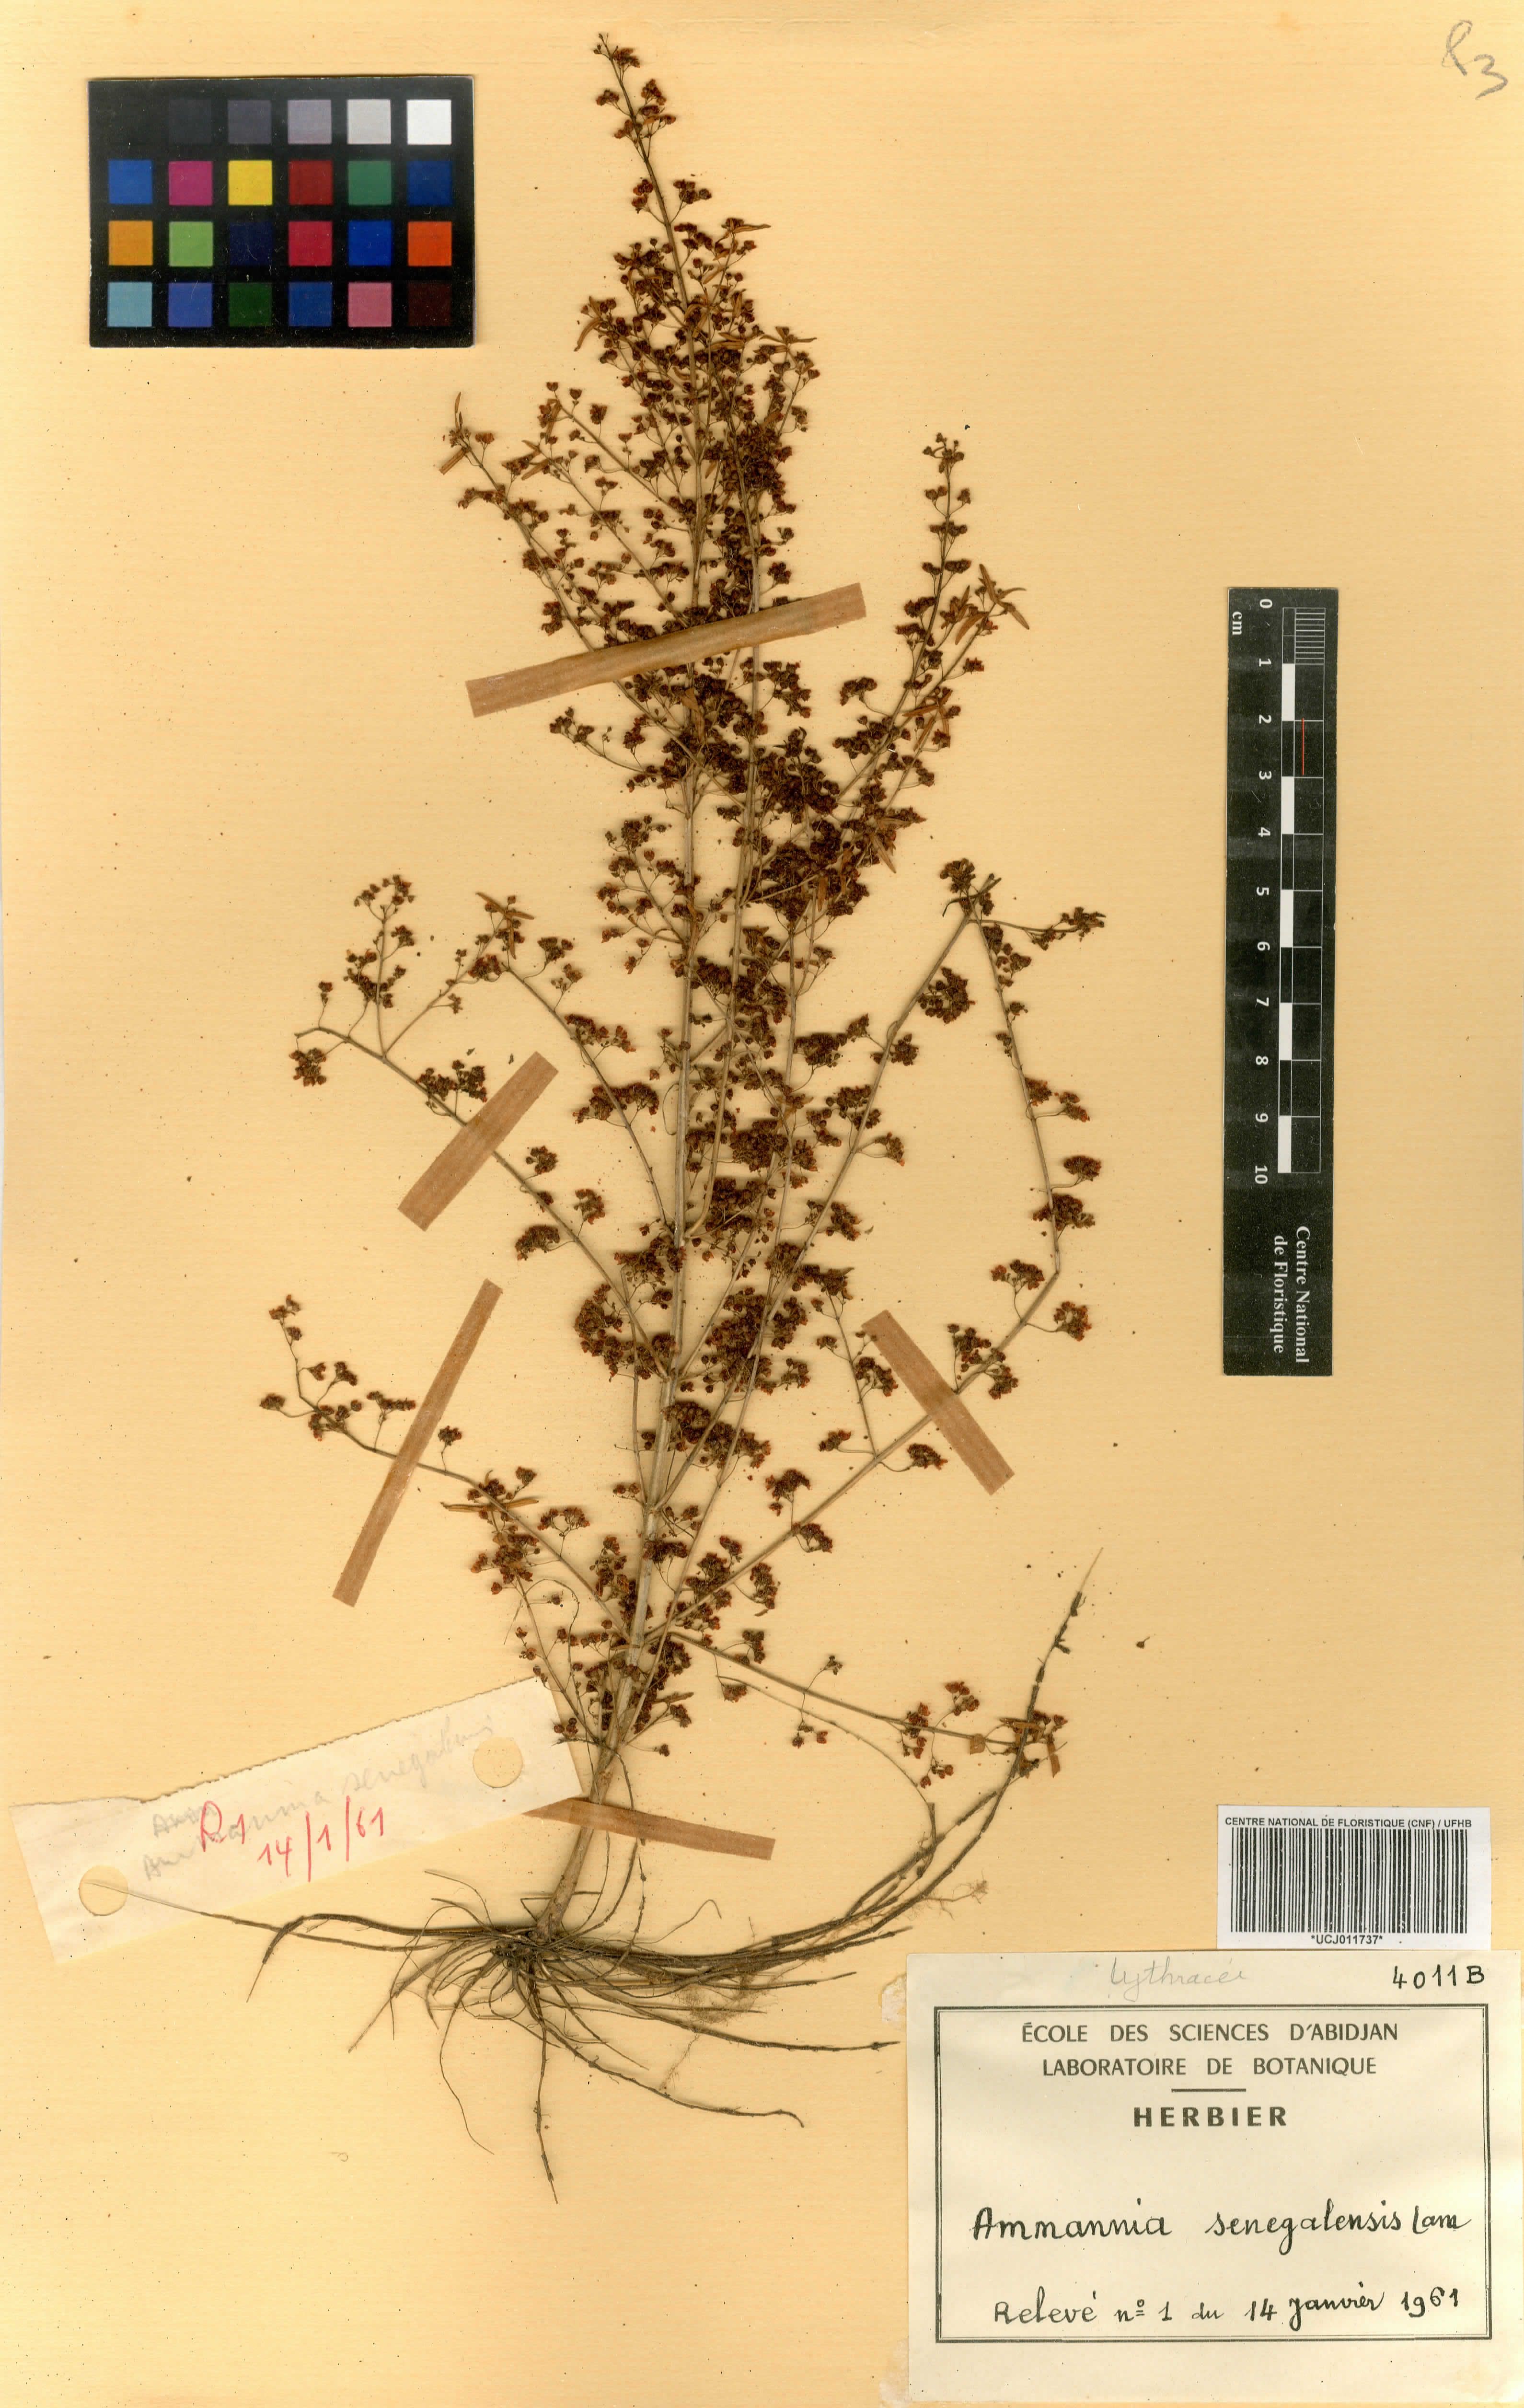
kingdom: Plantae
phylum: Tracheophyta
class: Magnoliopsida
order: Myrtales
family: Lythraceae
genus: Ammannia
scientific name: Ammannia senegalensis
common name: Red ammannia
